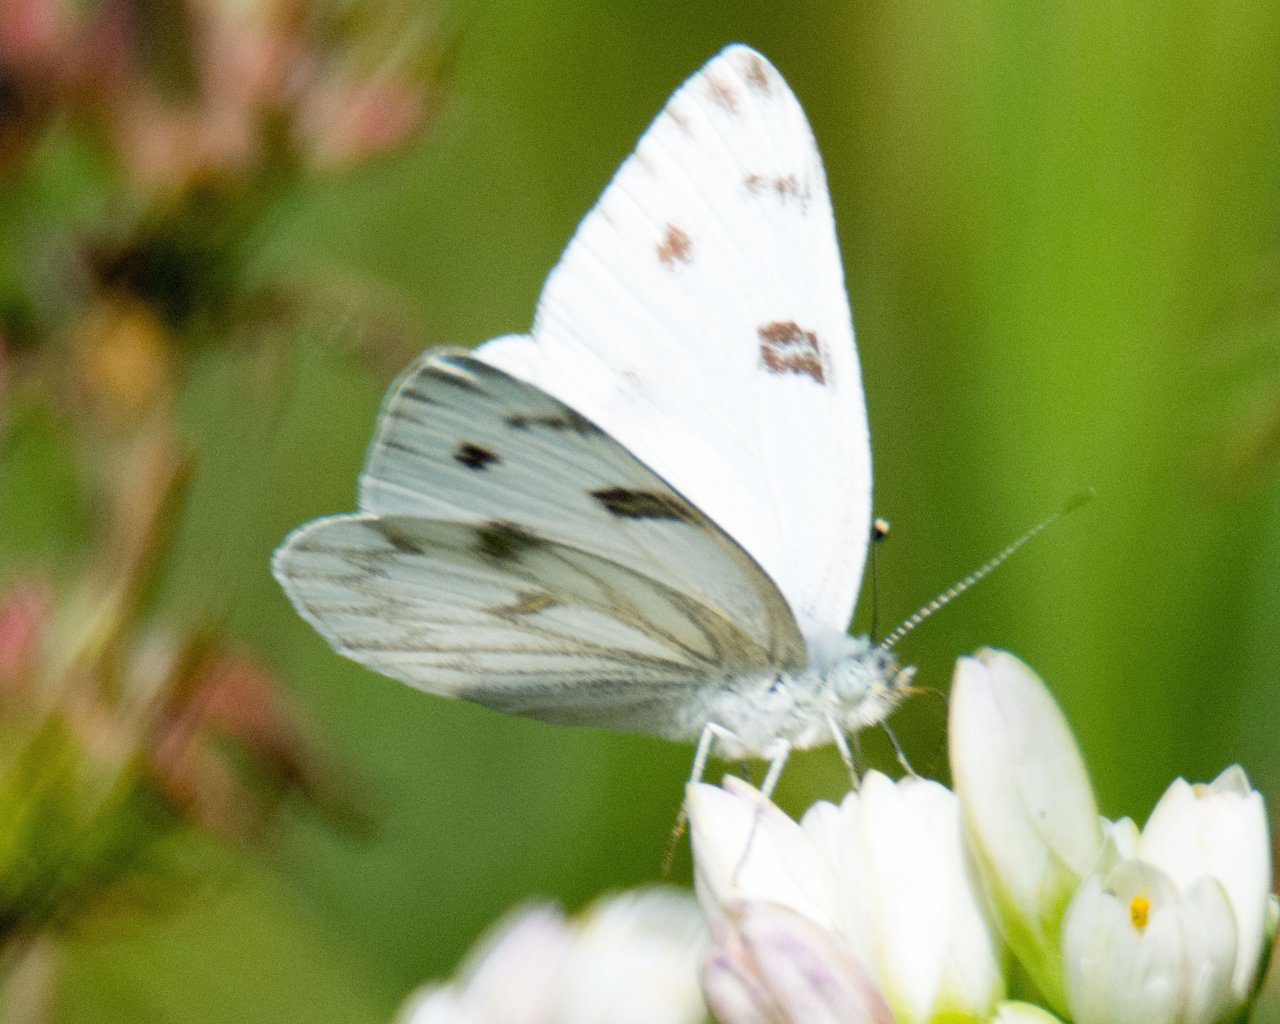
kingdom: Animalia
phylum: Arthropoda
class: Insecta
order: Lepidoptera
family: Pieridae
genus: Pontia
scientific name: Pontia protodice
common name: Checkered White
